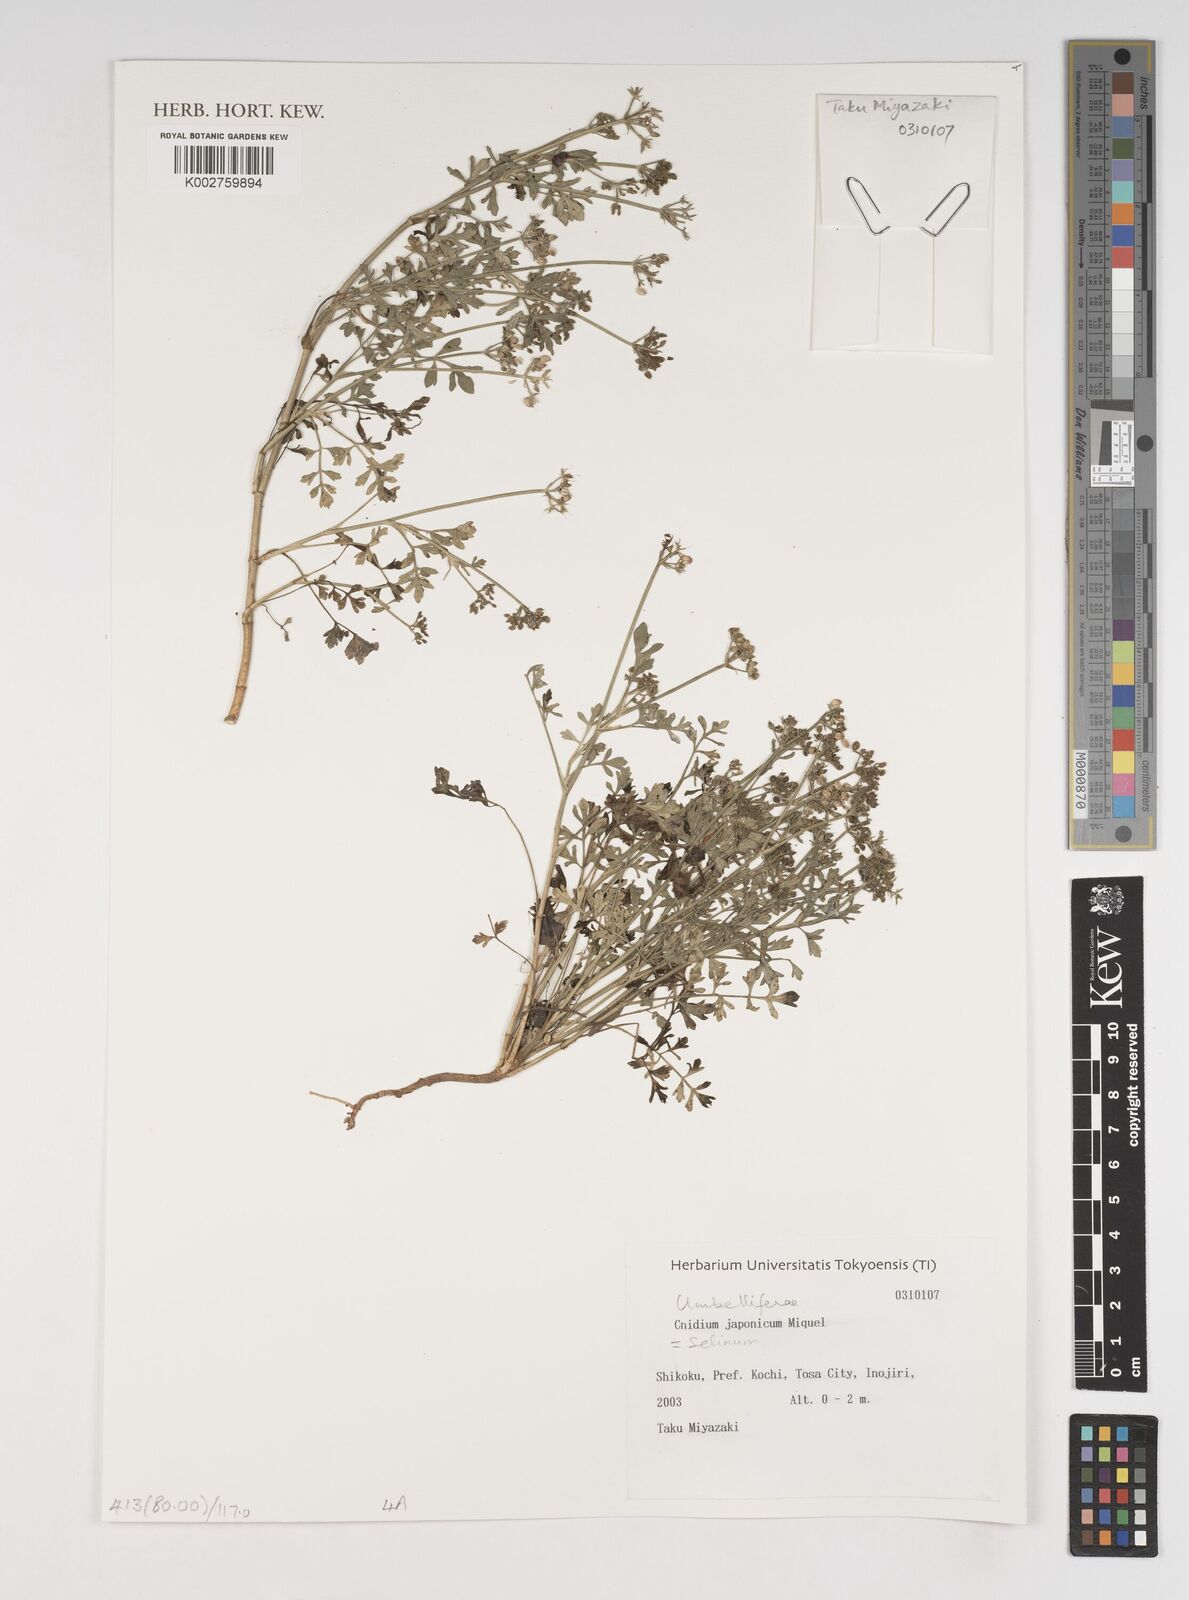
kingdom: Plantae
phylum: Tracheophyta
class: Magnoliopsida
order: Apiales
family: Apiaceae
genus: Cnidium
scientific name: Cnidium japonicum
